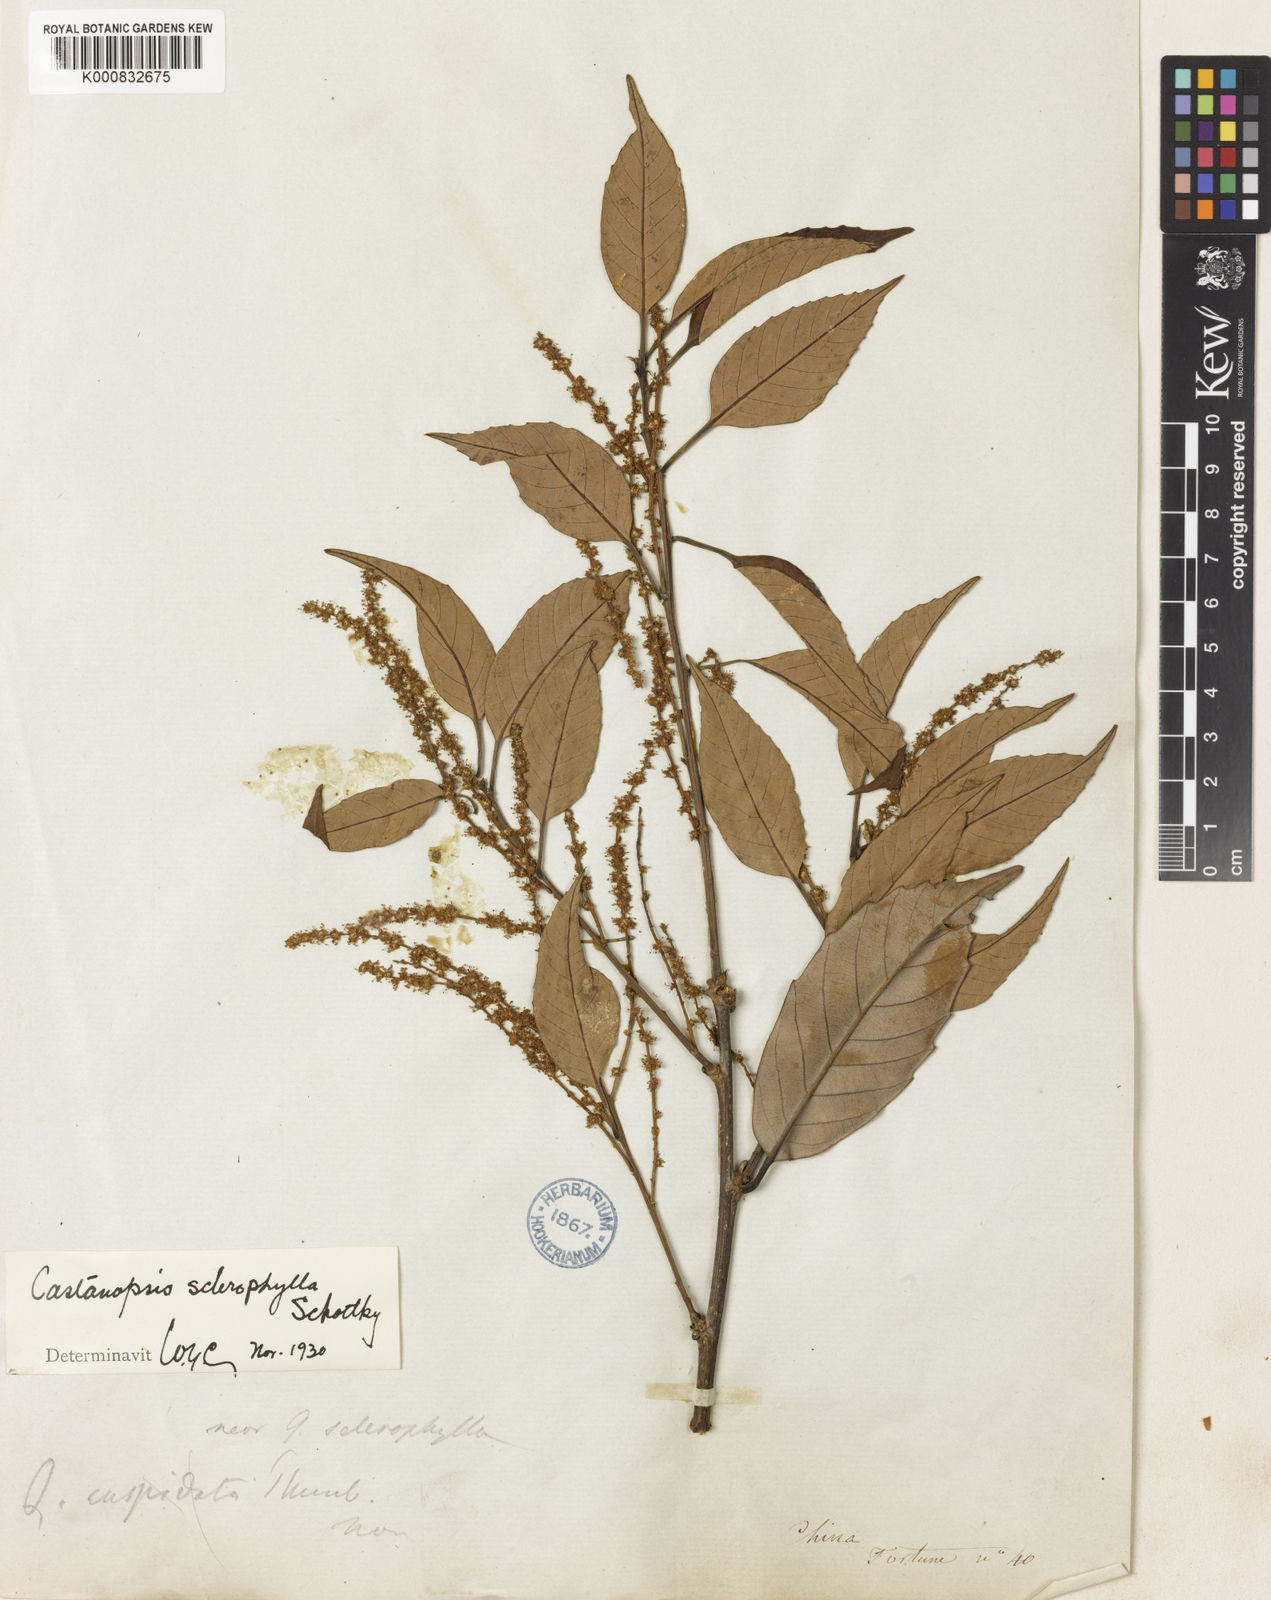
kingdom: Plantae
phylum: Tracheophyta
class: Magnoliopsida
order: Fagales
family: Fagaceae
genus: Castanopsis
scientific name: Castanopsis sclerophylla
